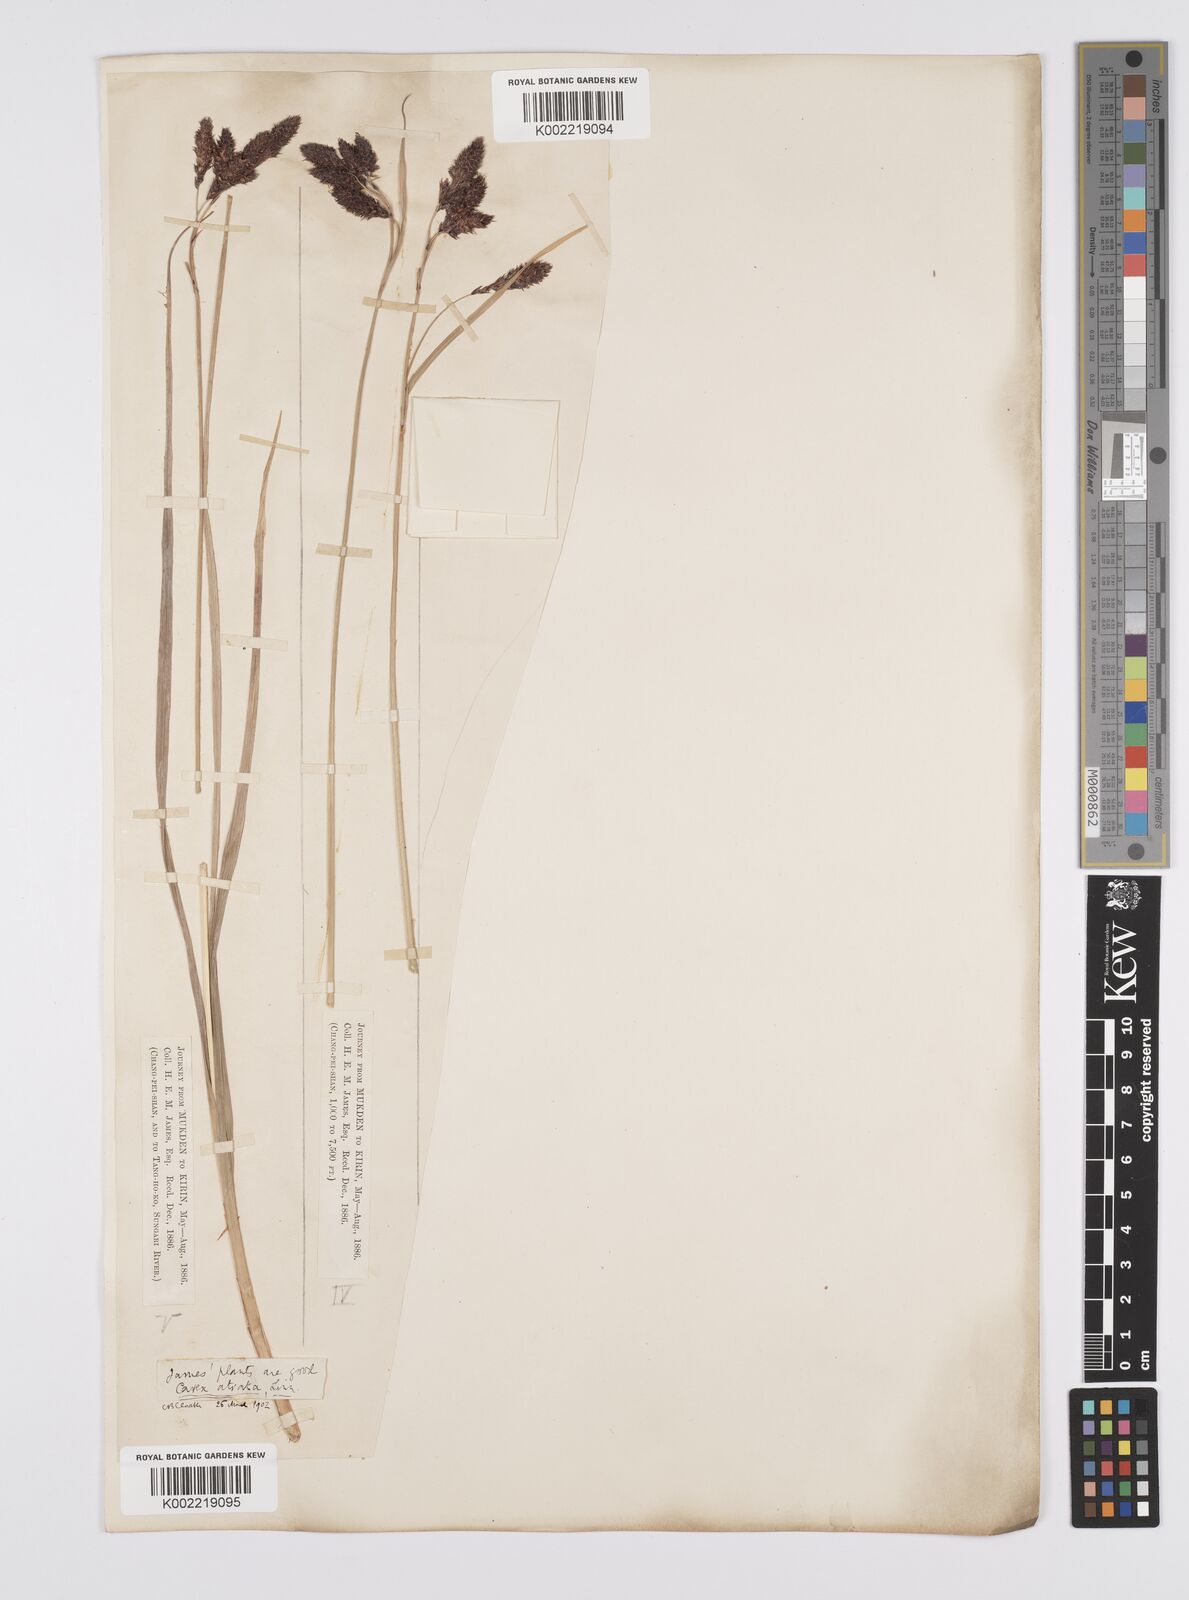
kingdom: Plantae
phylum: Tracheophyta
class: Liliopsida
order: Poales
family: Cyperaceae
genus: Carex
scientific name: Carex aterrima
